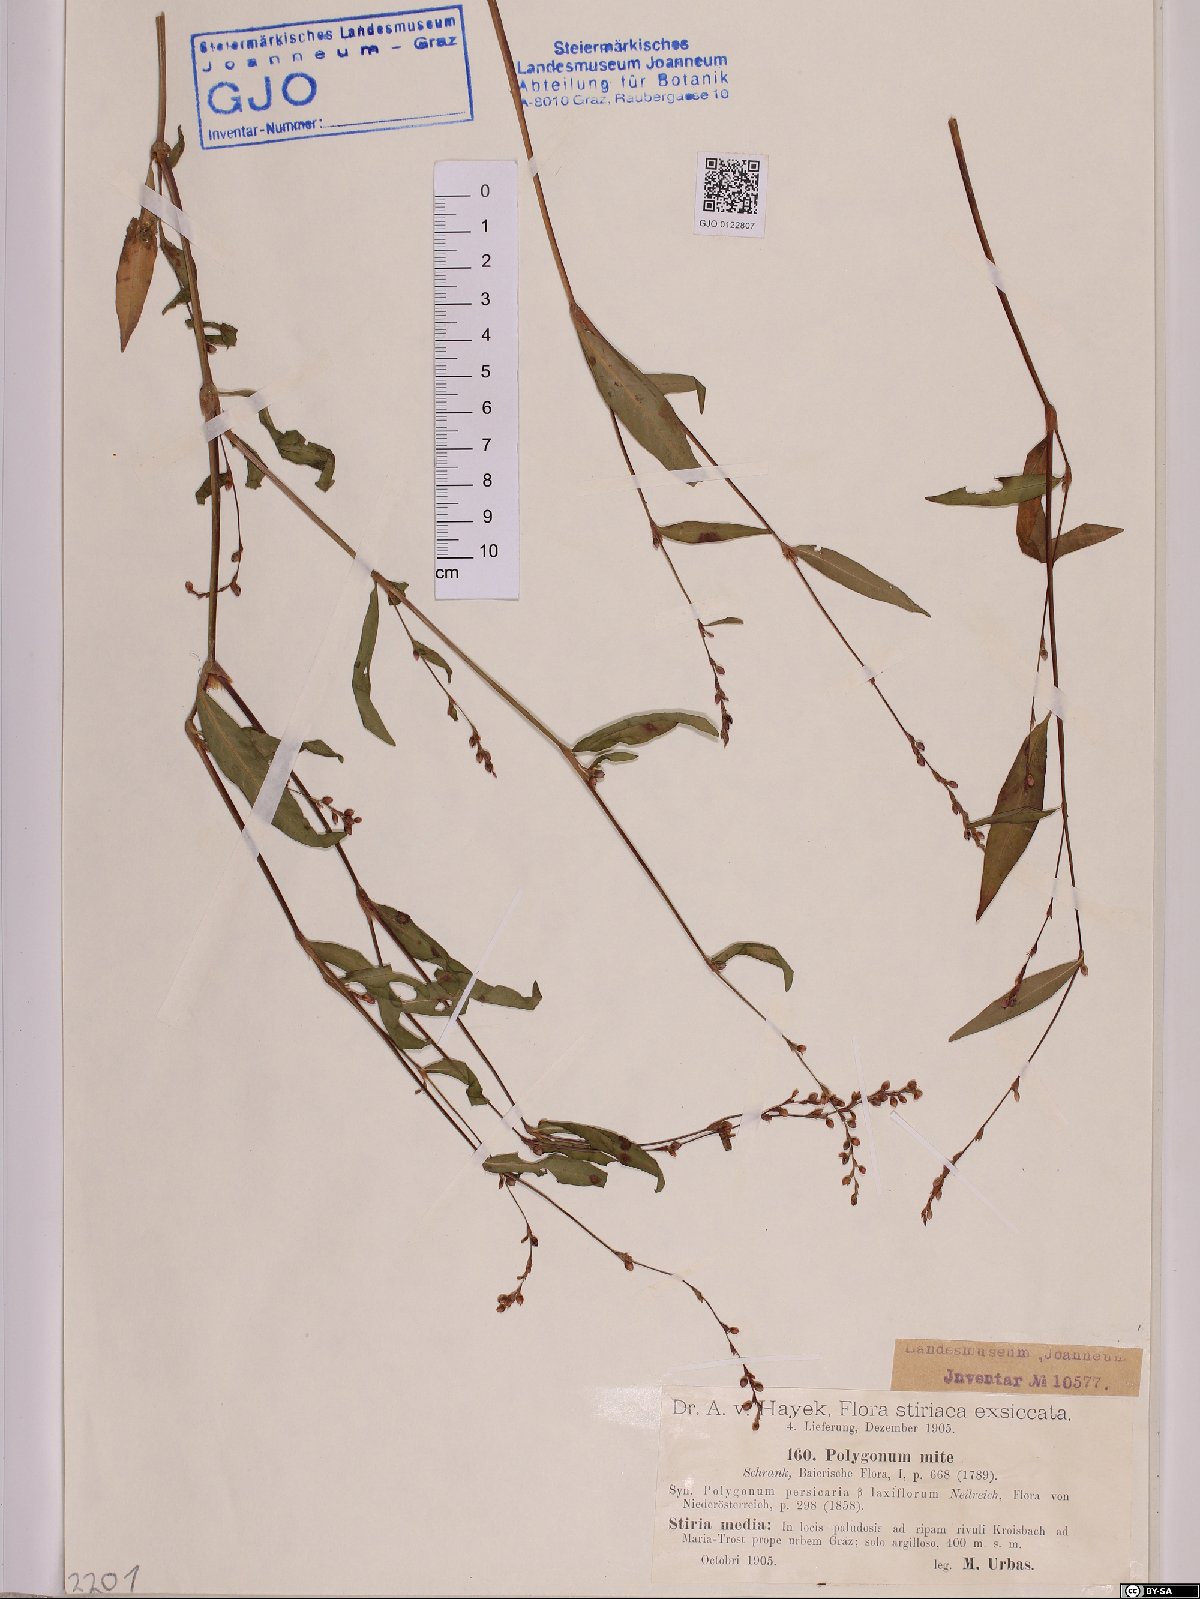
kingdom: Plantae
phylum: Tracheophyta
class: Magnoliopsida
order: Caryophyllales
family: Polygonaceae
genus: Persicaria
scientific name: Persicaria mitis
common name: Tasteless water-pepper
